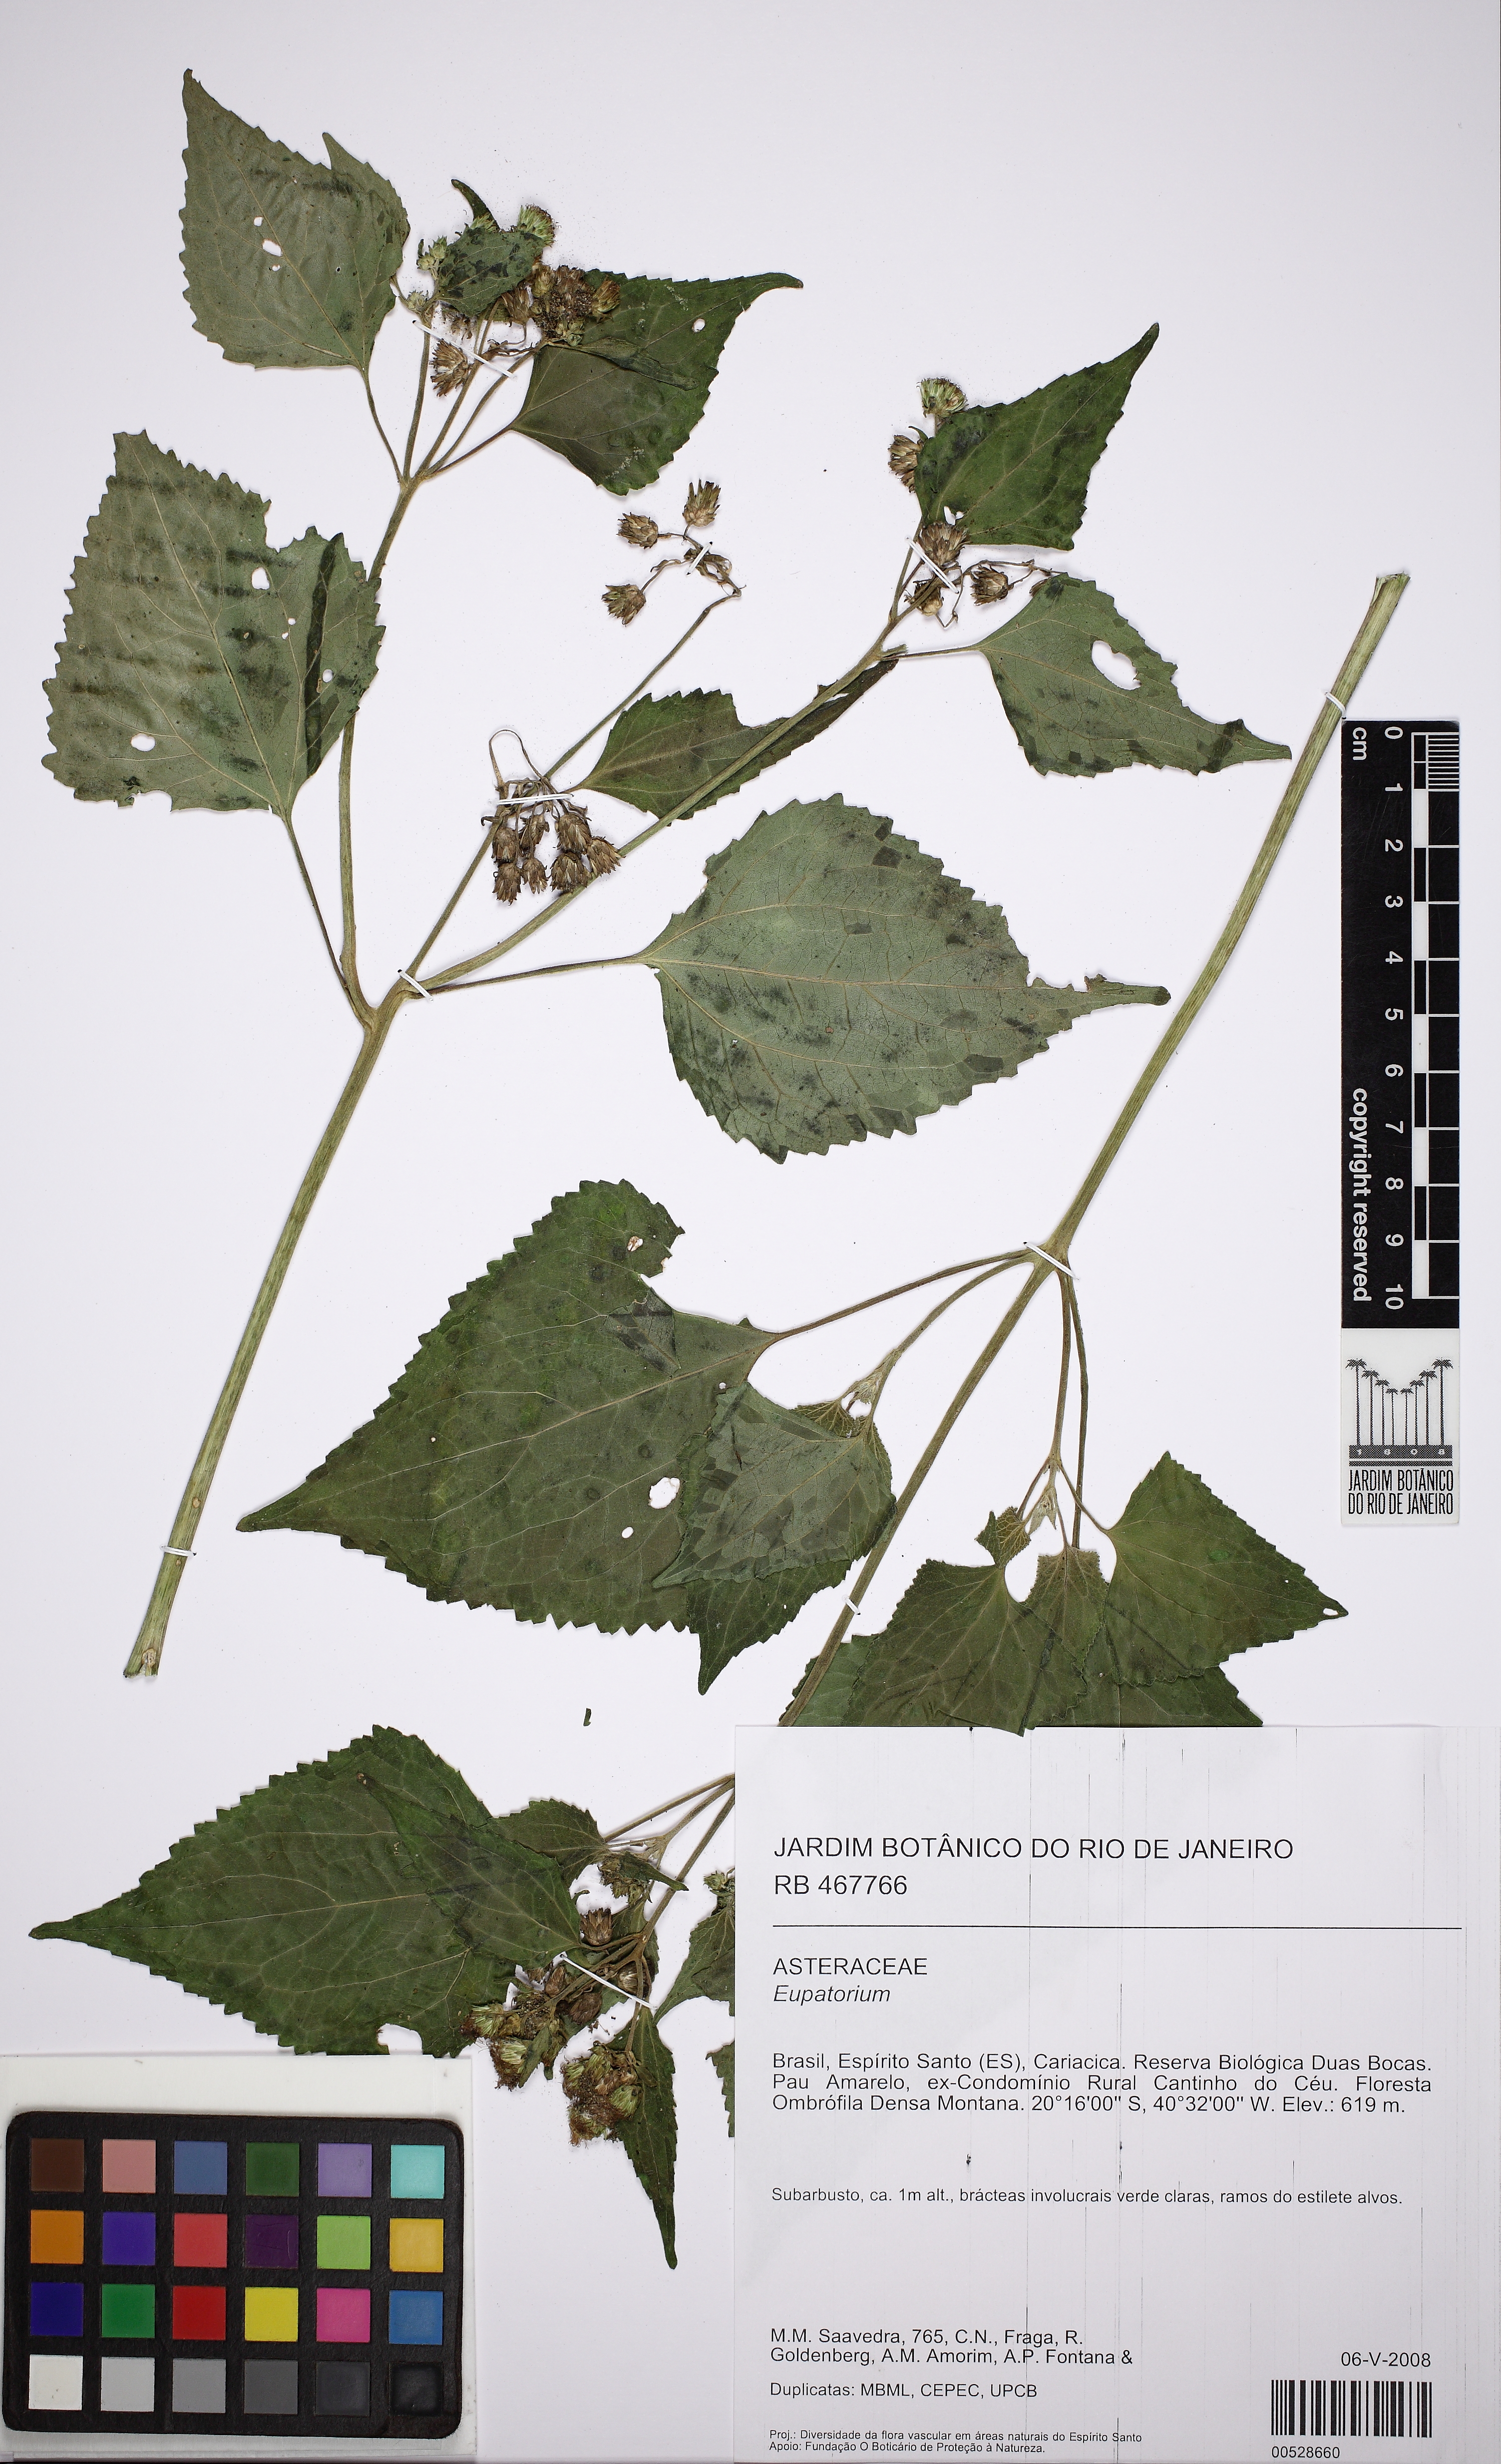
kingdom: Plantae
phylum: Tracheophyta
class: Magnoliopsida
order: Asterales
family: Asteraceae
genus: Bartlettina
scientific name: Bartlettina conspicua
